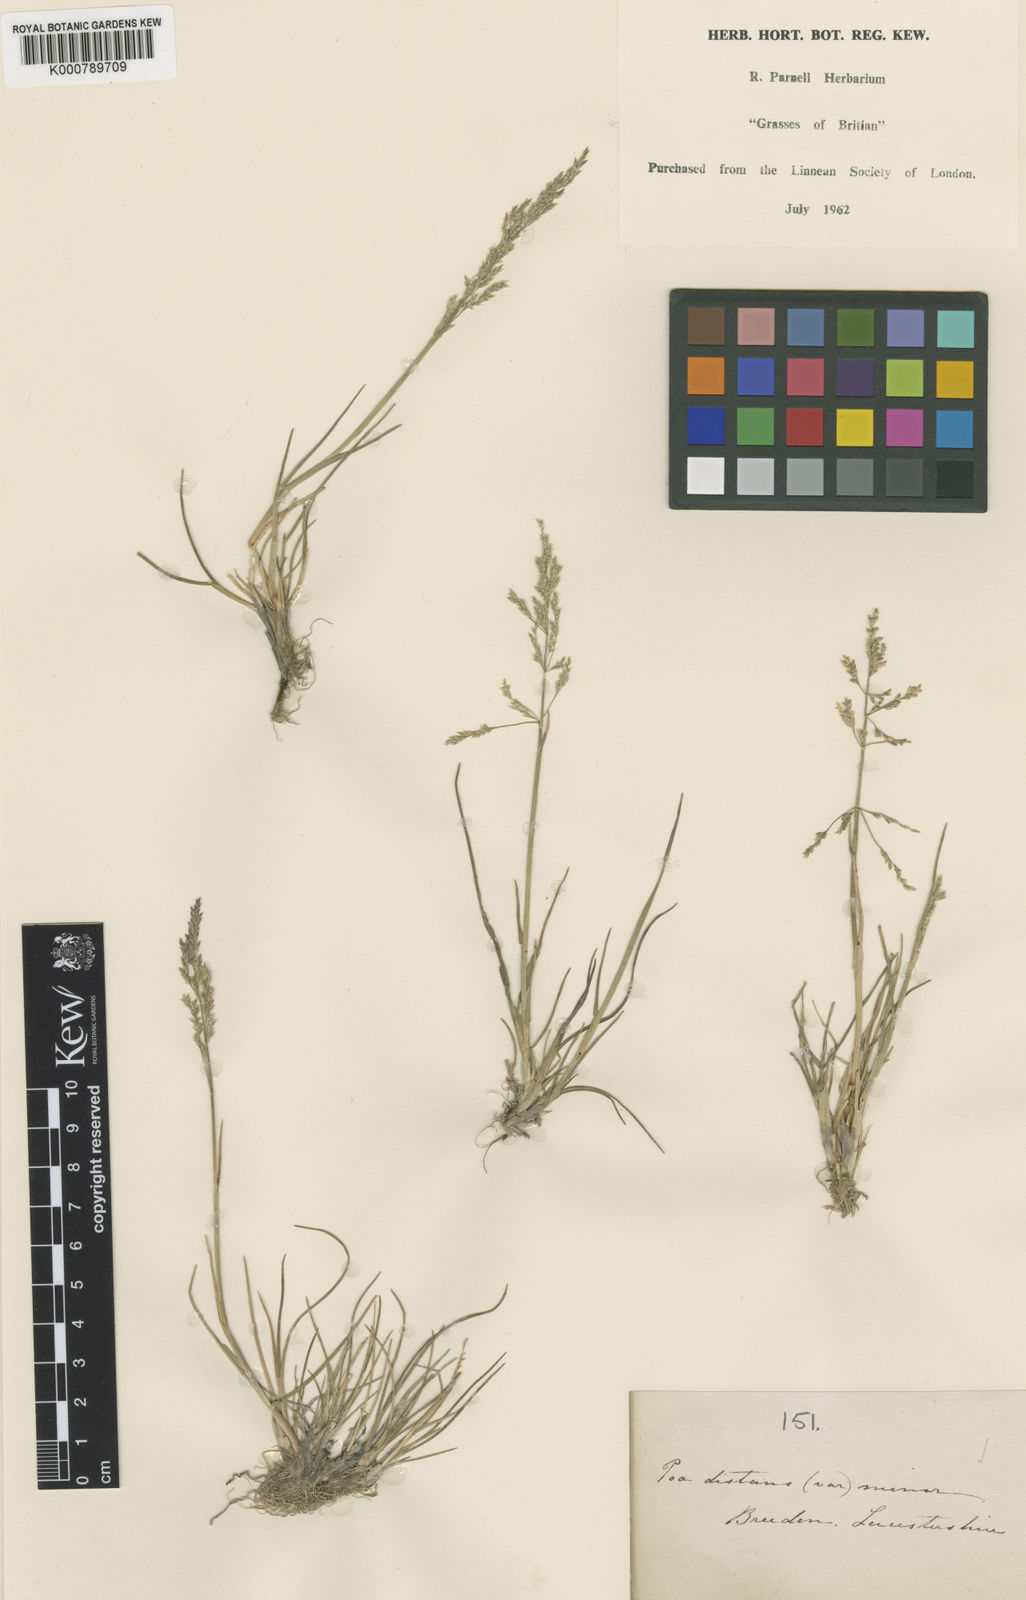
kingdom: Plantae
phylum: Tracheophyta
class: Liliopsida
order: Poales
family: Poaceae
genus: Puccinellia
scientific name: Puccinellia distans
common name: Weeping alkaligrass
